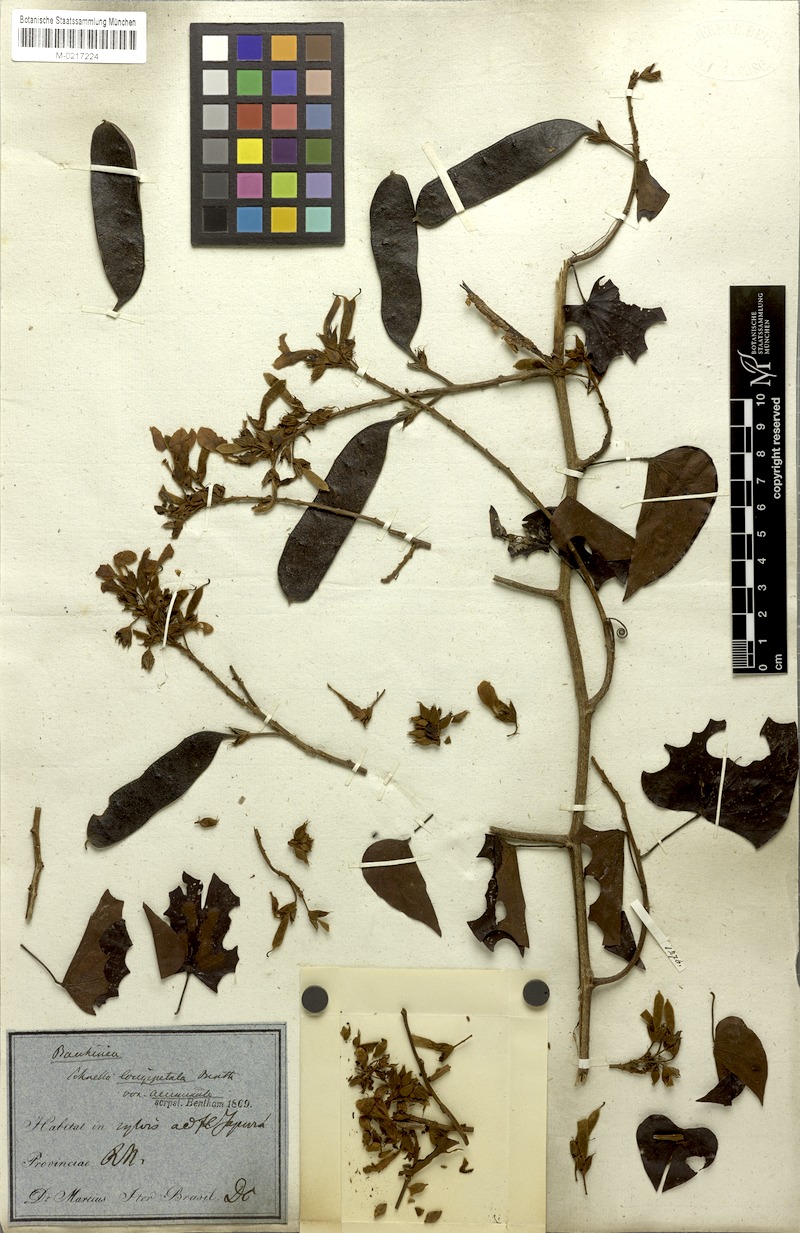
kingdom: Plantae
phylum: Tracheophyta
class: Magnoliopsida
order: Fabales
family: Fabaceae
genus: Schnella
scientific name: Schnella glabra
